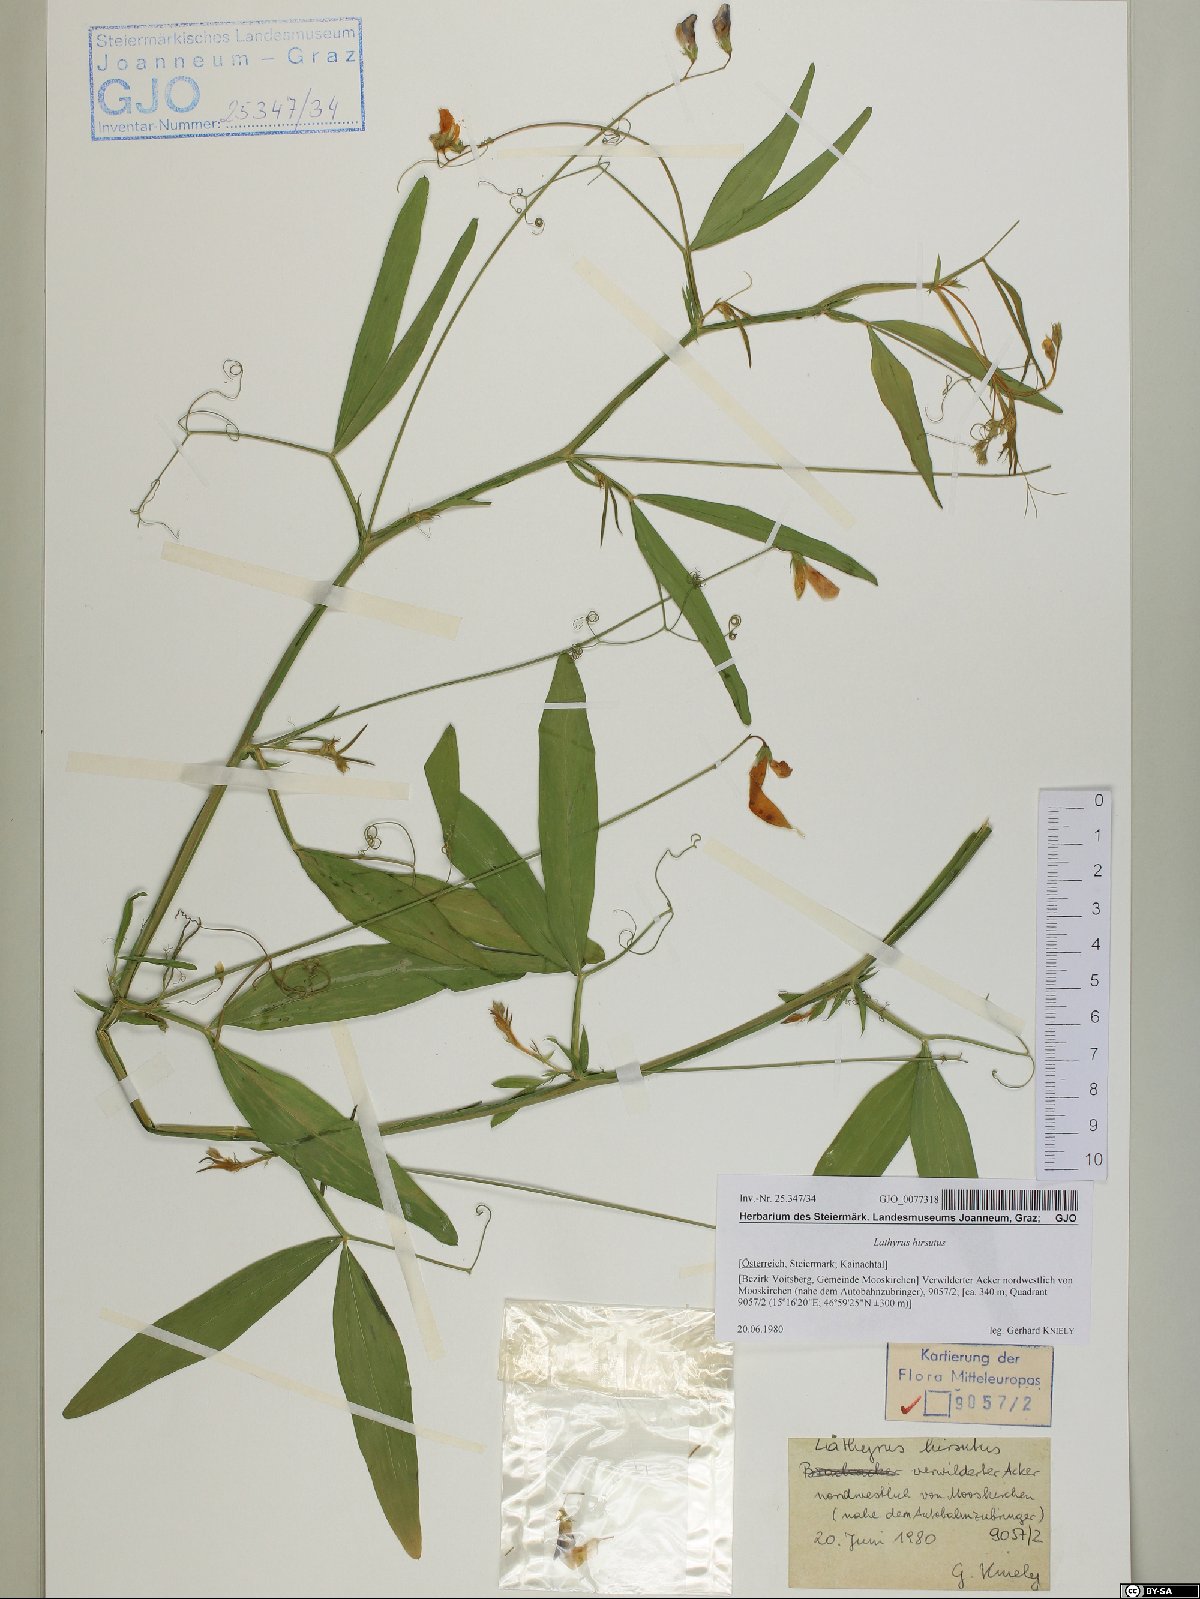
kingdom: Plantae
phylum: Tracheophyta
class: Magnoliopsida
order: Fabales
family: Fabaceae
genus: Lathyrus
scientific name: Lathyrus hirsutus
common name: Hairy vetchling
